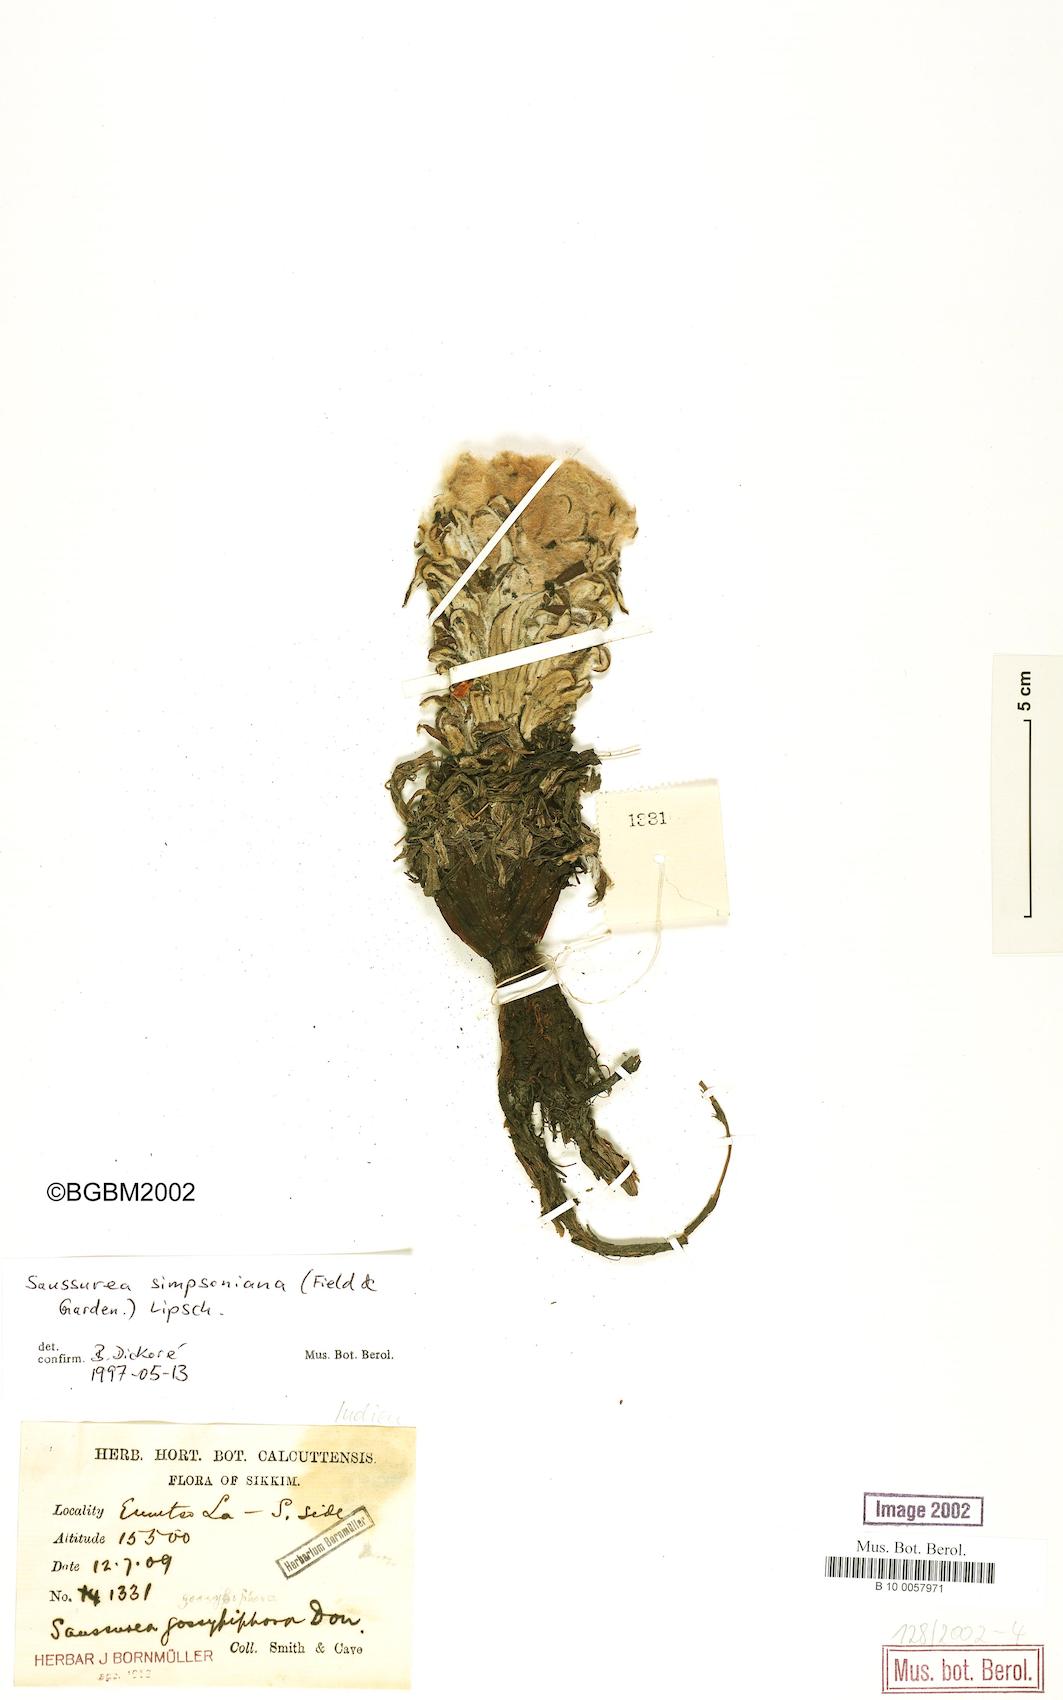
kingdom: Plantae
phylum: Tracheophyta
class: Magnoliopsida
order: Asterales
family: Asteraceae
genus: Saussurea
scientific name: Saussurea simpsoniana
